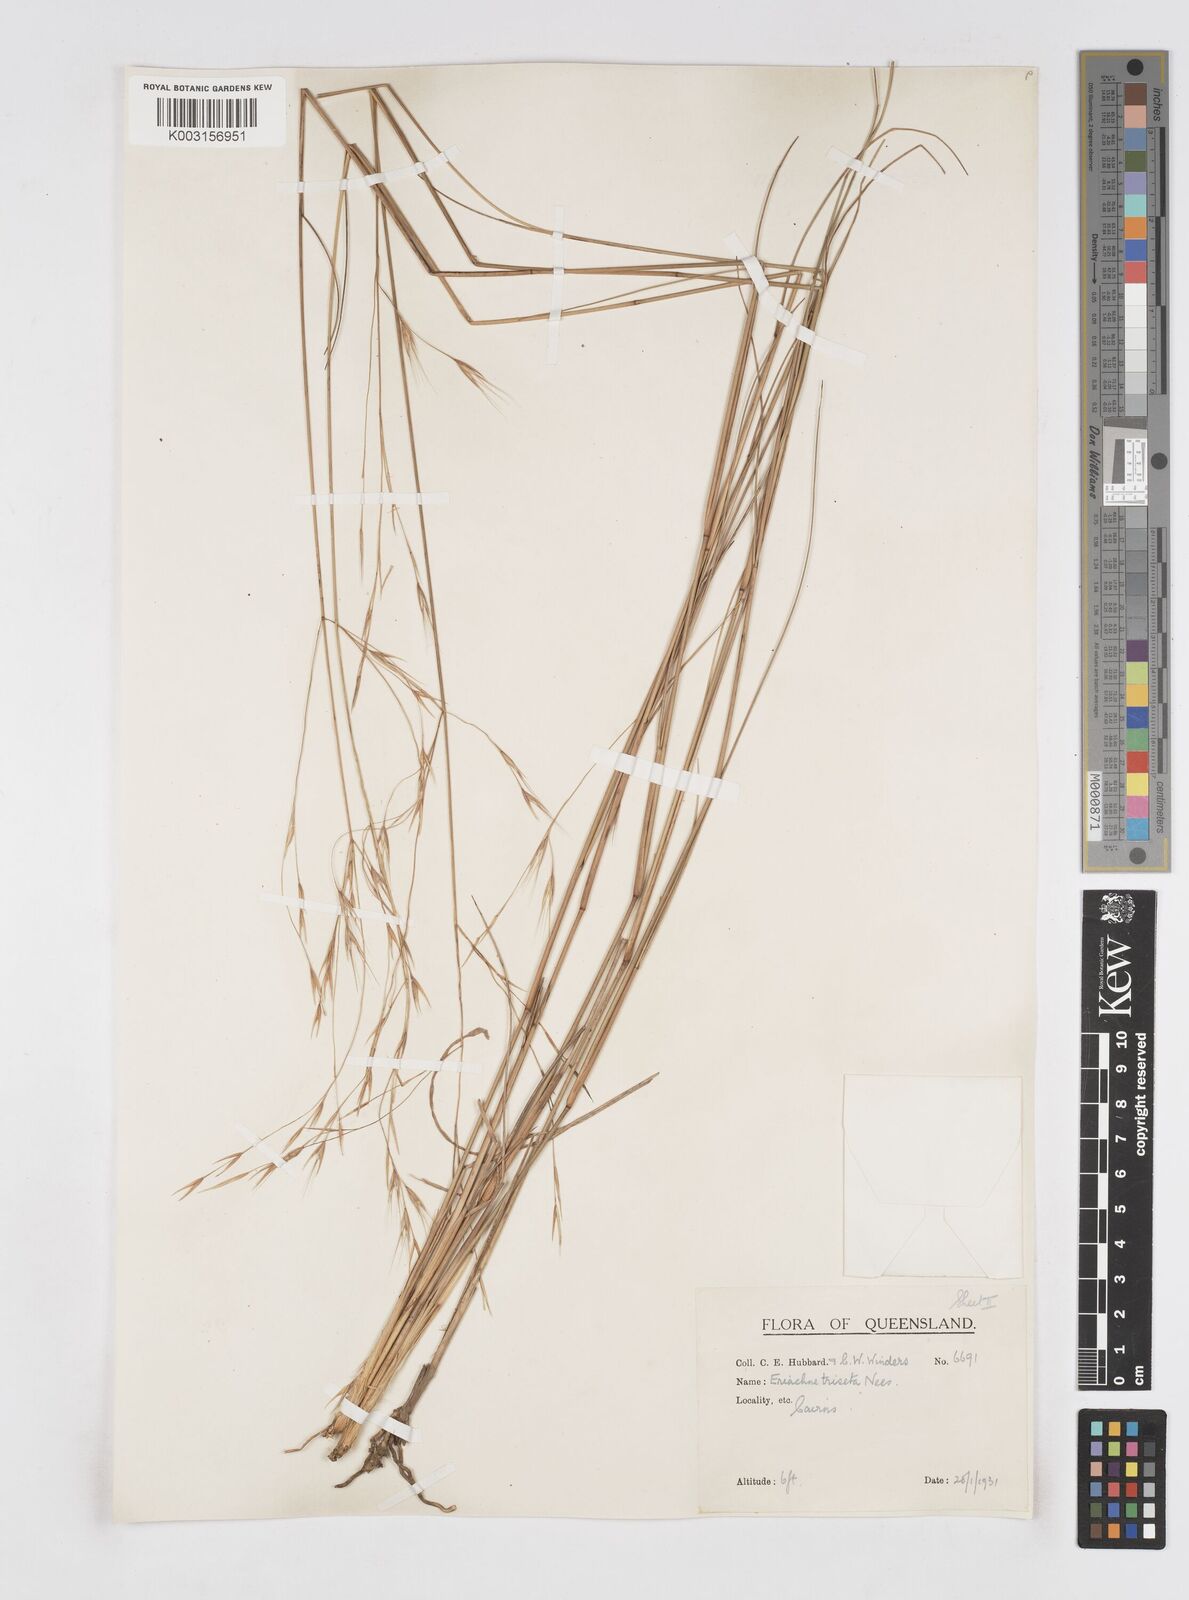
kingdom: Plantae
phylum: Tracheophyta
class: Liliopsida
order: Poales
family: Poaceae
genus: Eriachne
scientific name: Eriachne triseta
